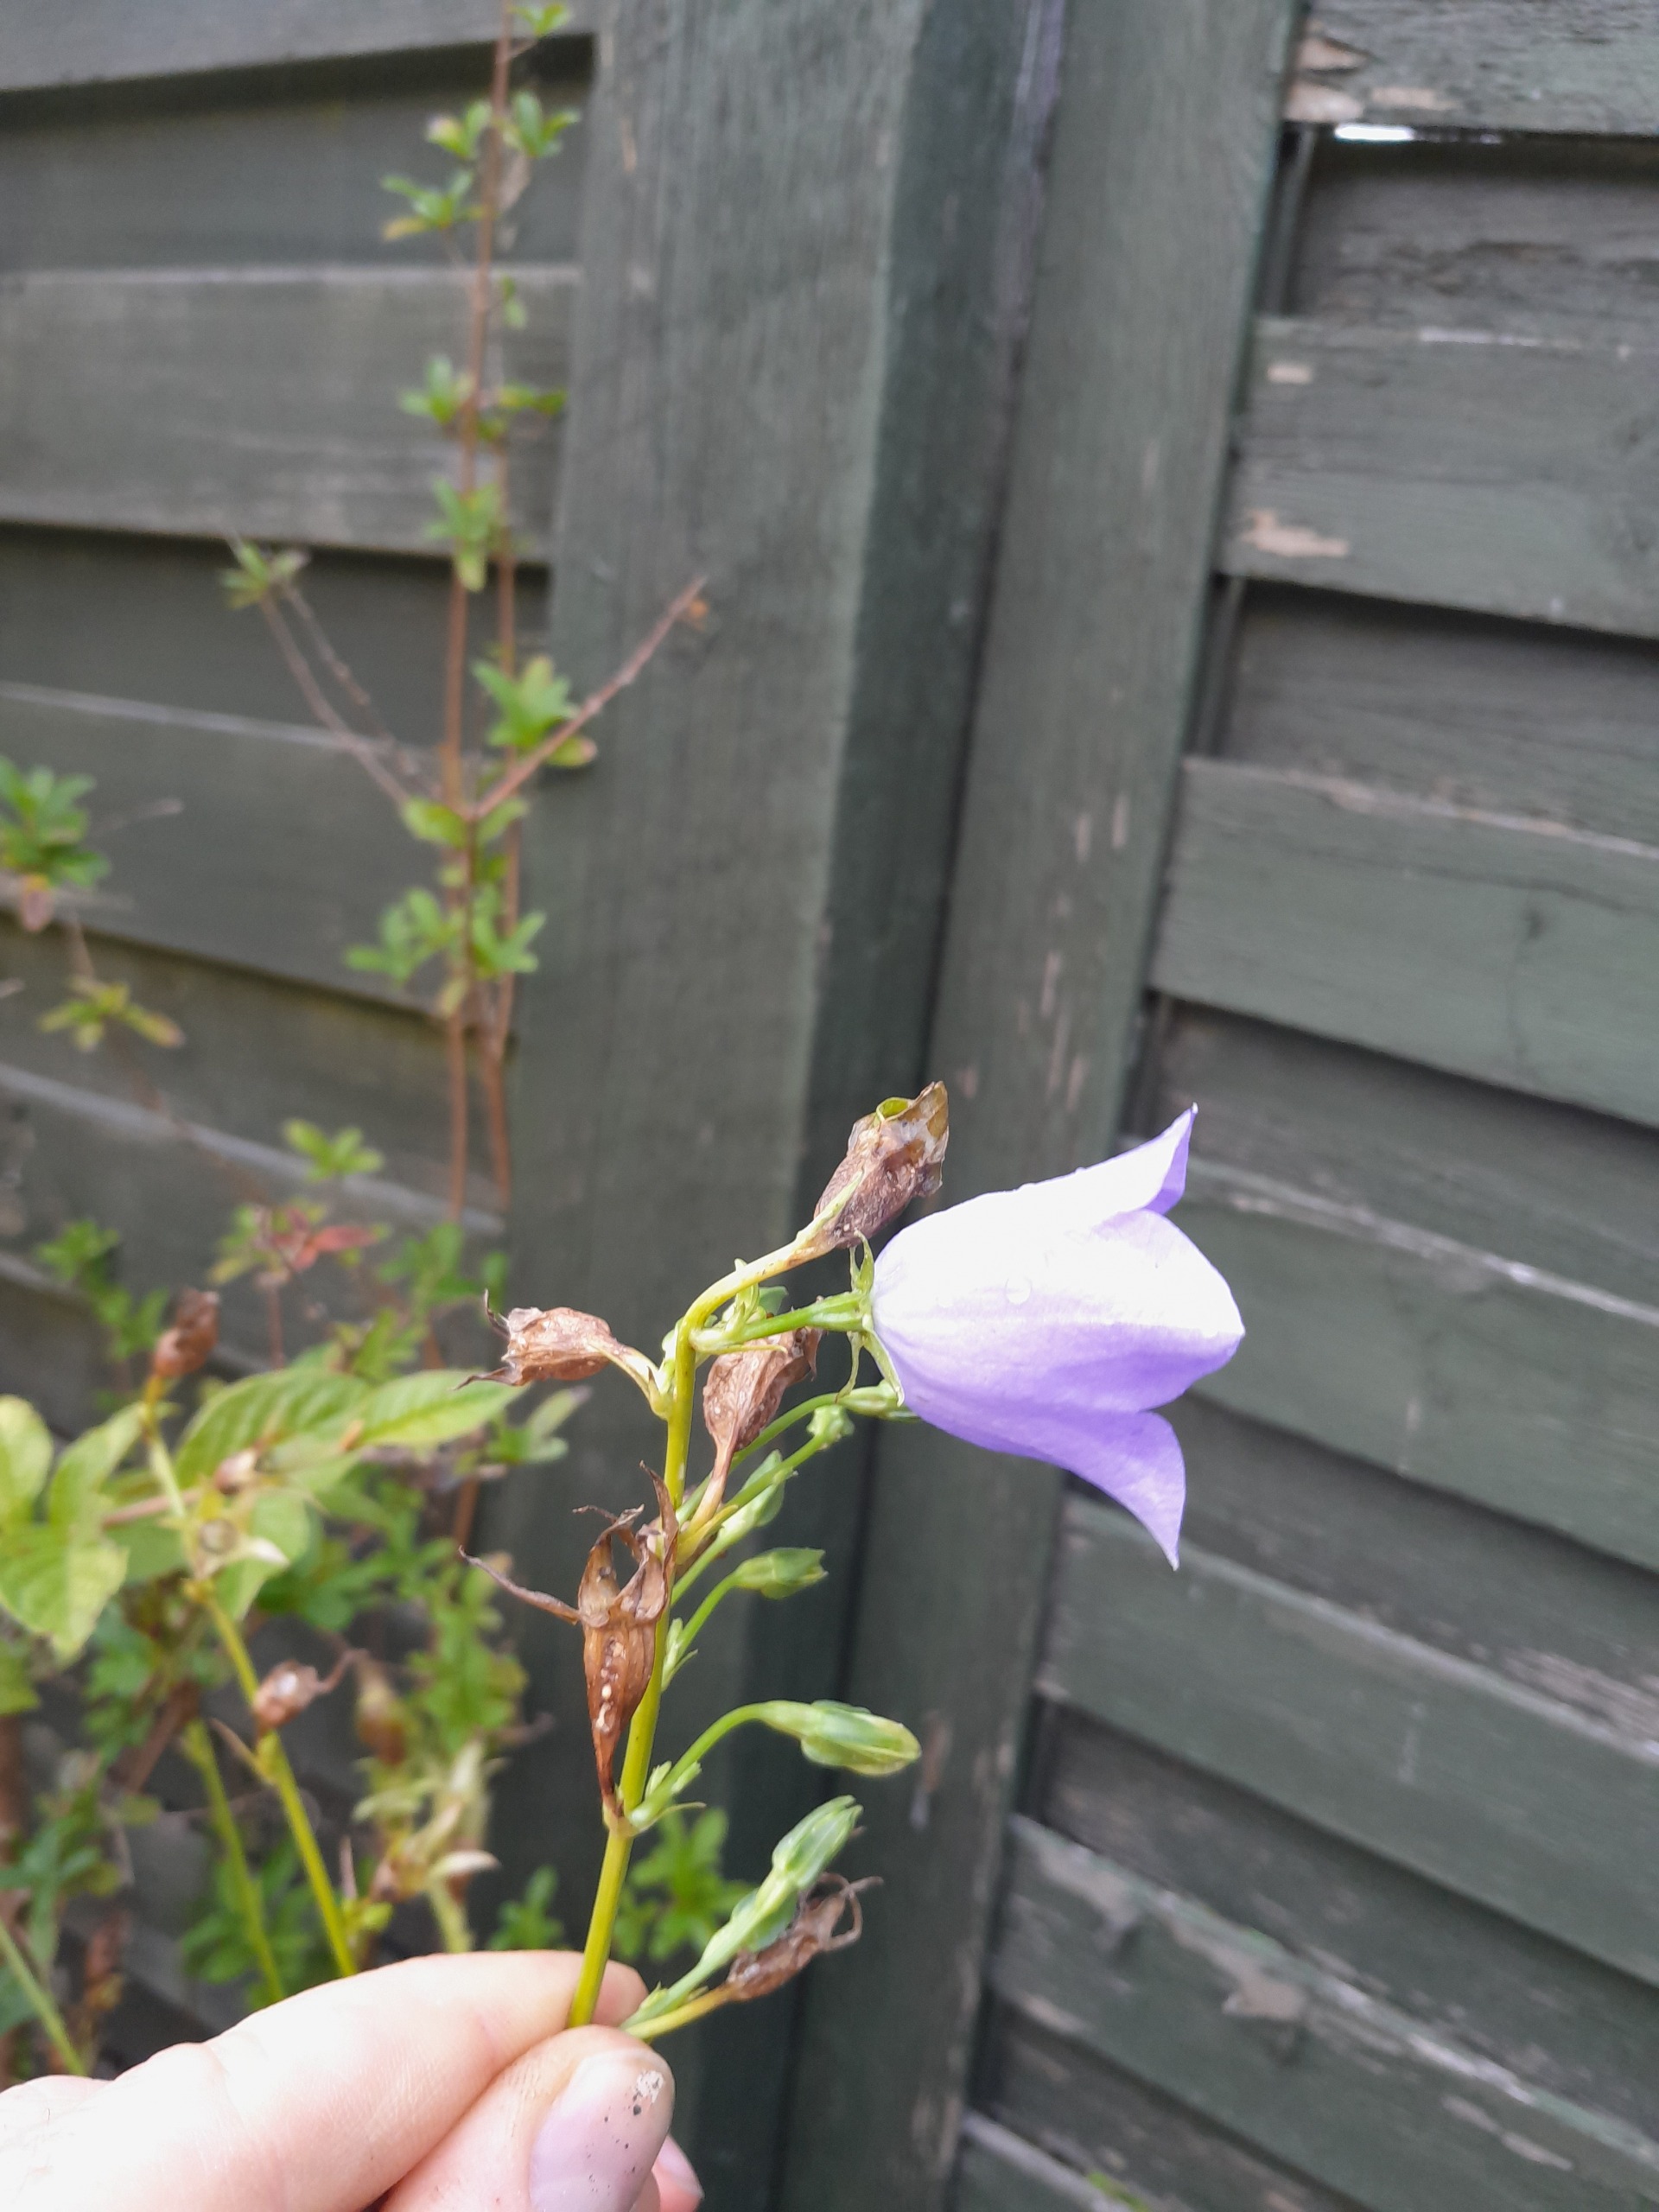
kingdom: Plantae
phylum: Tracheophyta
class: Magnoliopsida
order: Asterales
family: Campanulaceae
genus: Campanula
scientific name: Campanula persicifolia
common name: Smalbladet klokke
